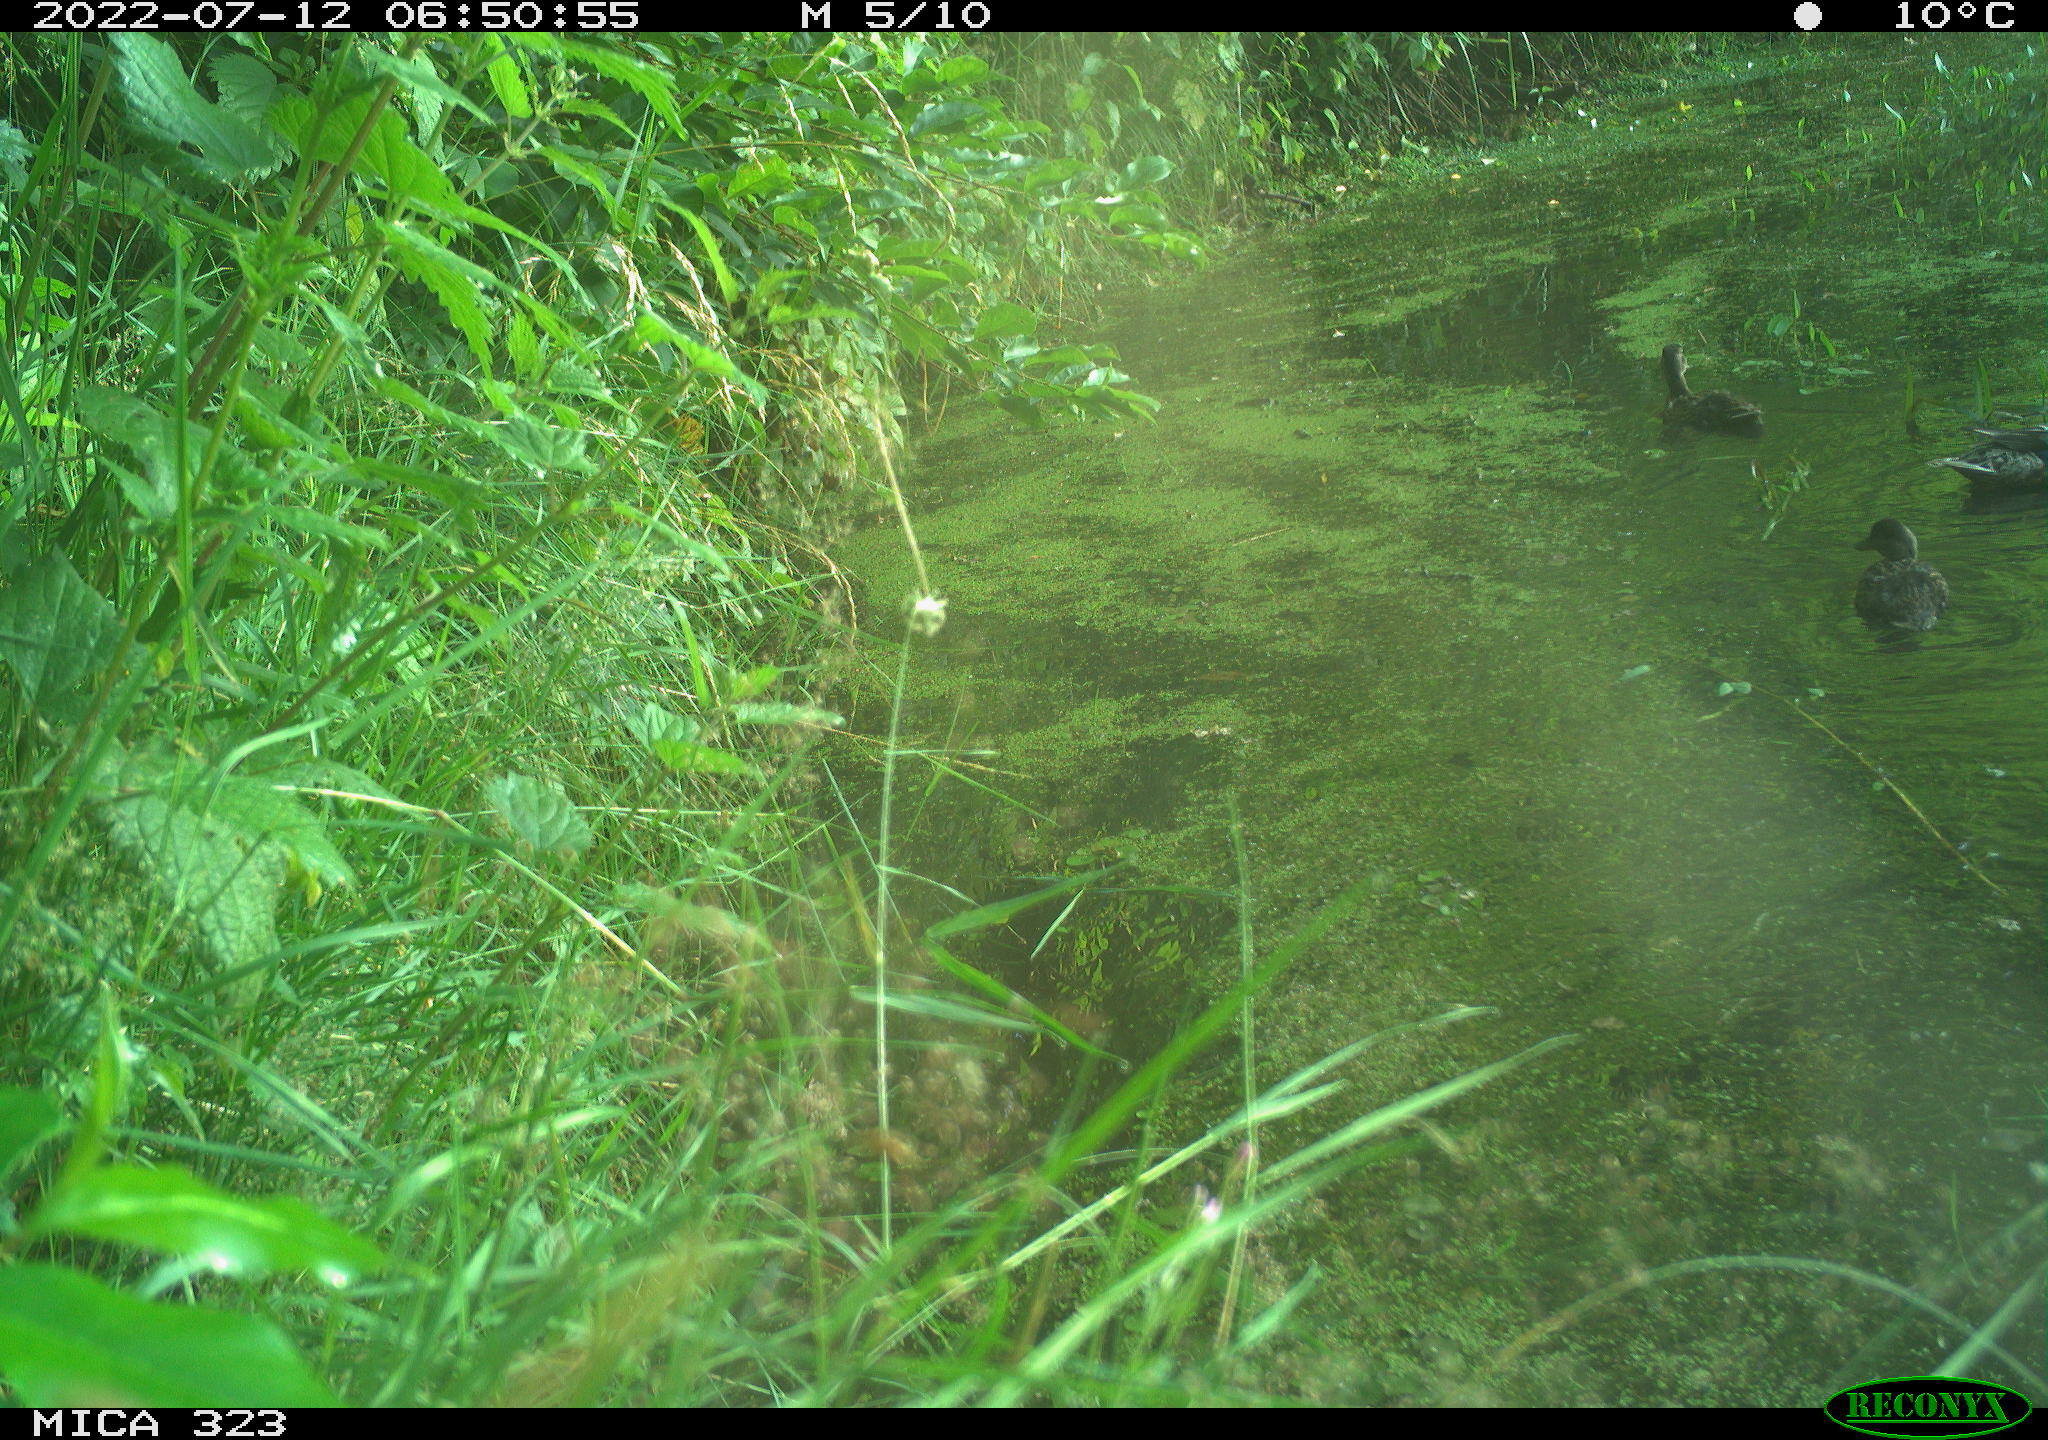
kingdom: Animalia
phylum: Chordata
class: Aves
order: Anseriformes
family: Anatidae
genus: Anas
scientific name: Anas platyrhynchos
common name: Mallard
